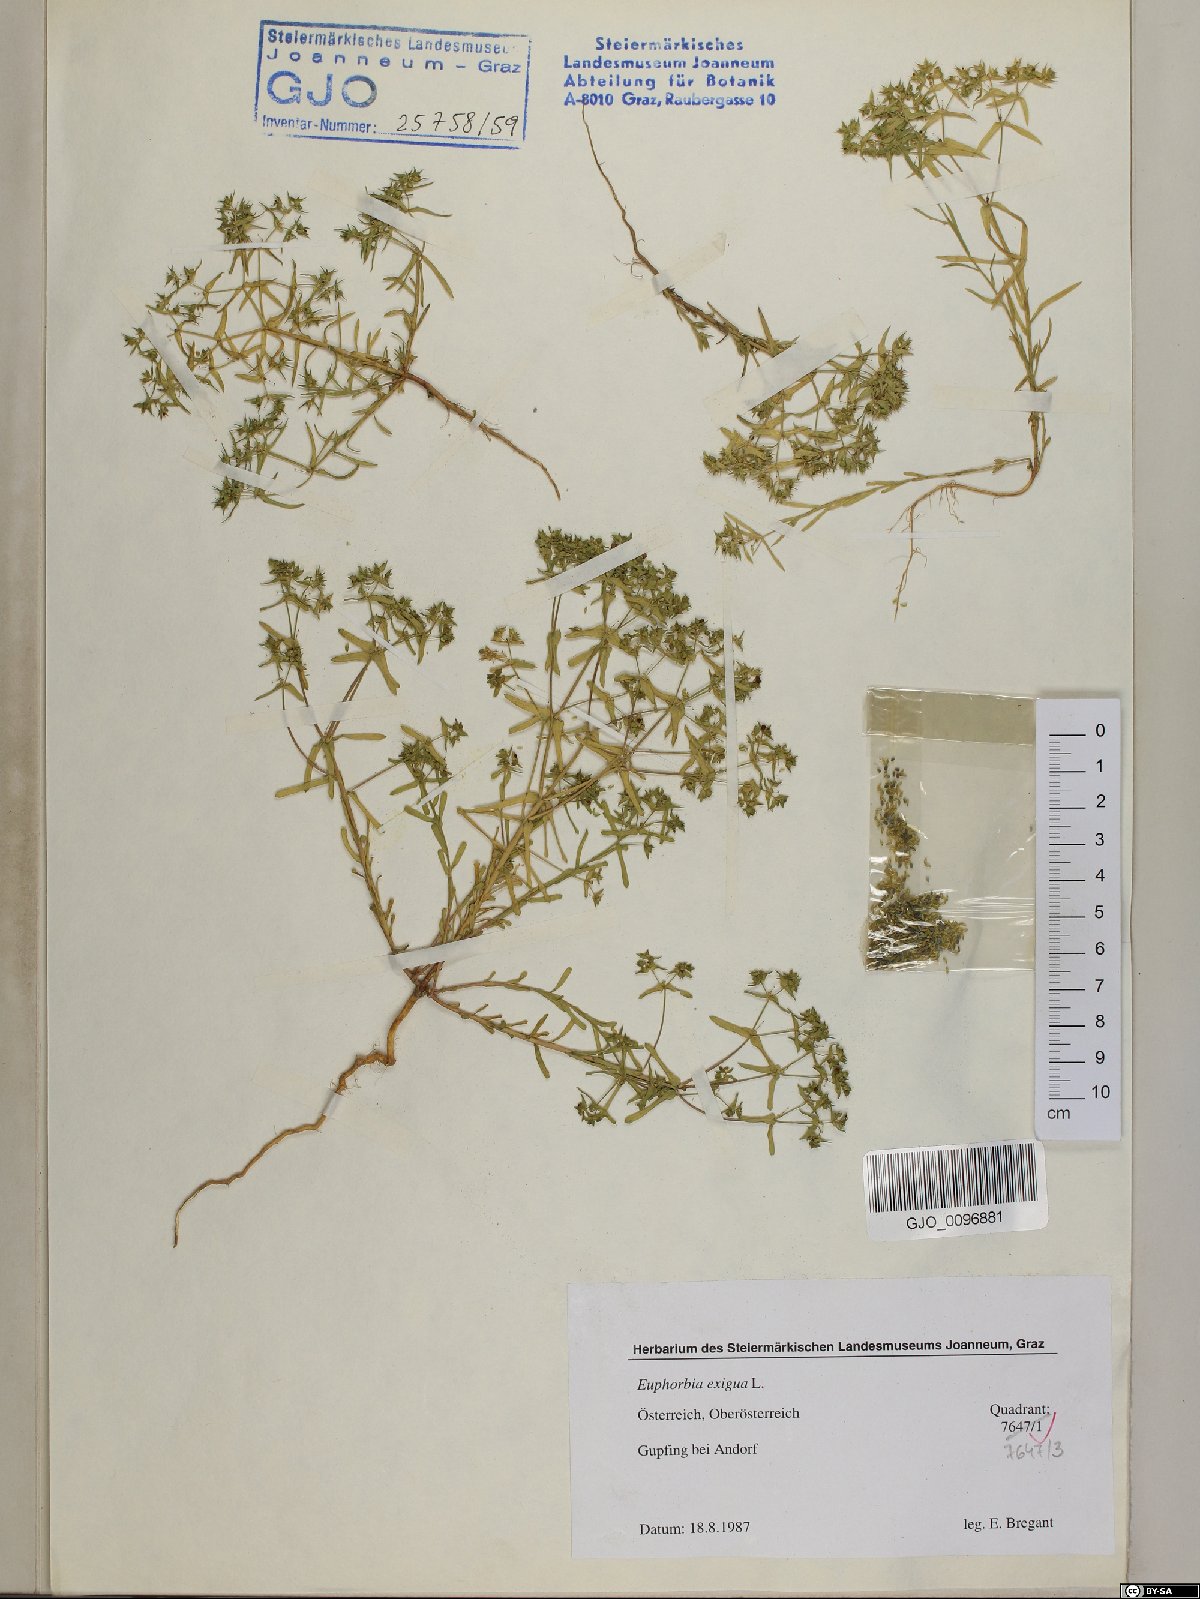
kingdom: Plantae
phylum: Tracheophyta
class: Magnoliopsida
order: Malpighiales
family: Euphorbiaceae
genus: Euphorbia
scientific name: Euphorbia exigua
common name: Dwarf spurge
